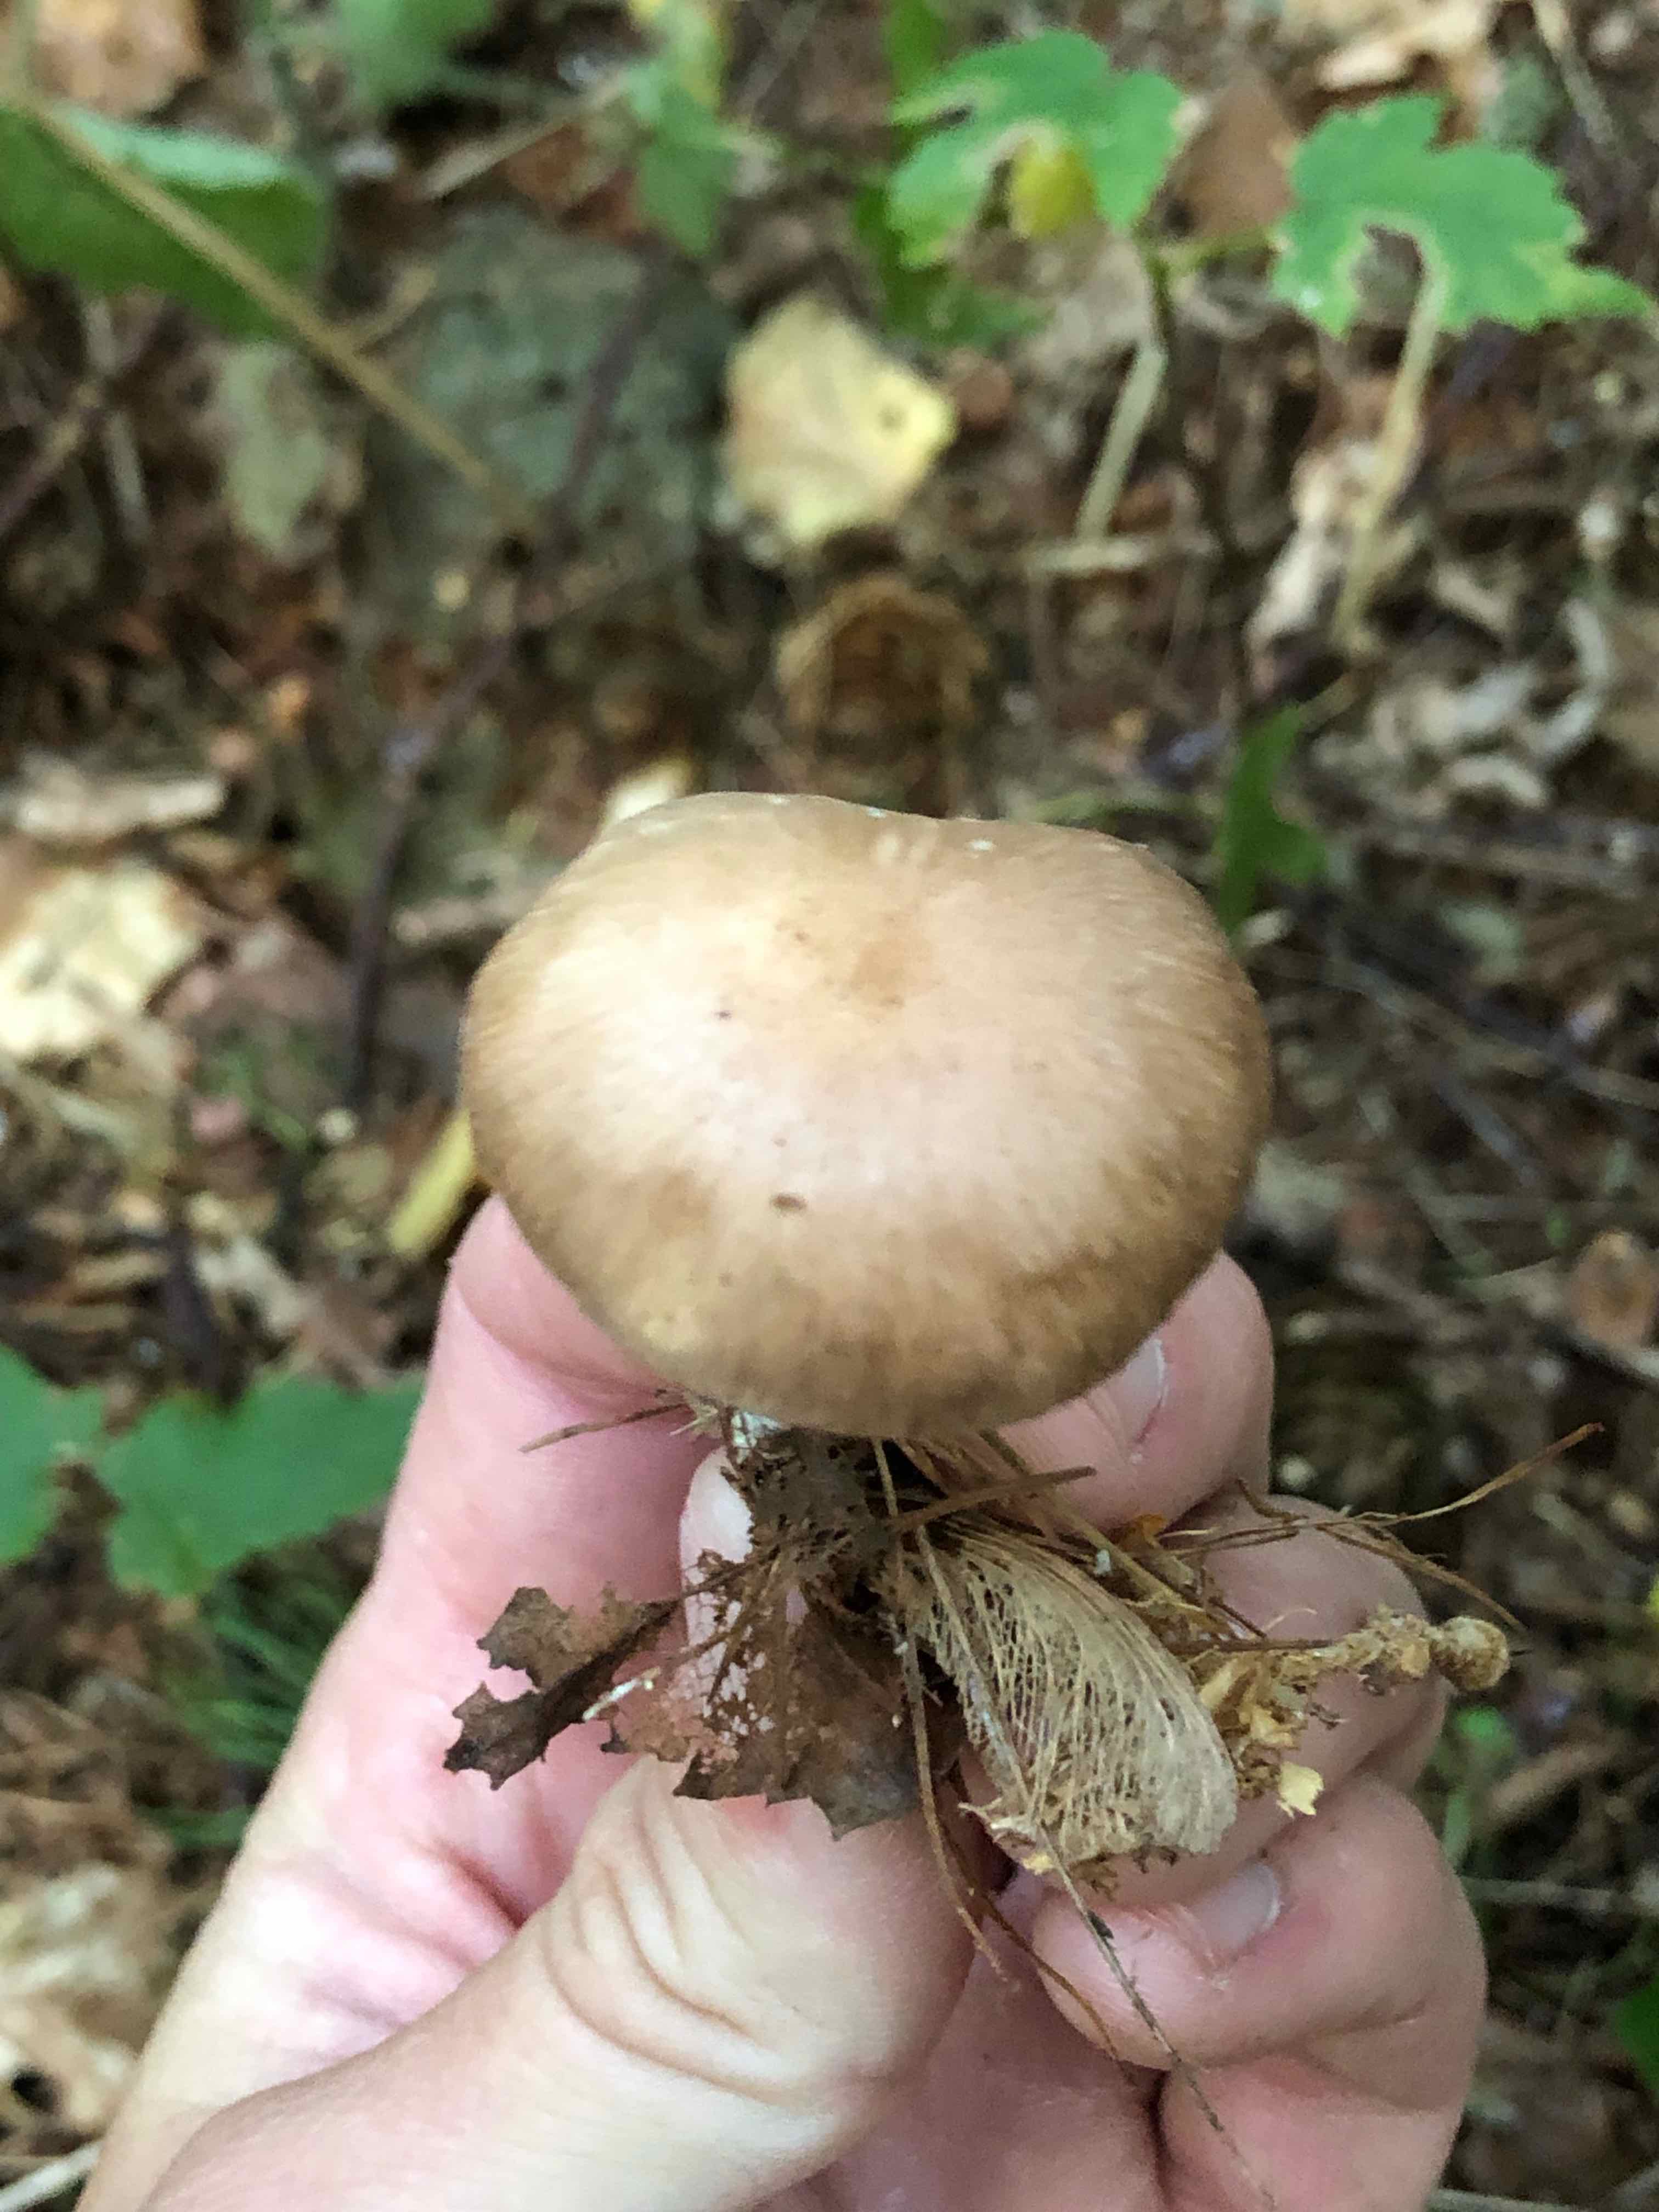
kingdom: Fungi
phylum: Basidiomycota
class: Agaricomycetes
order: Agaricales
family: Omphalotaceae
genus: Collybiopsis
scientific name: Collybiopsis peronata
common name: bestøvlet fladhat
